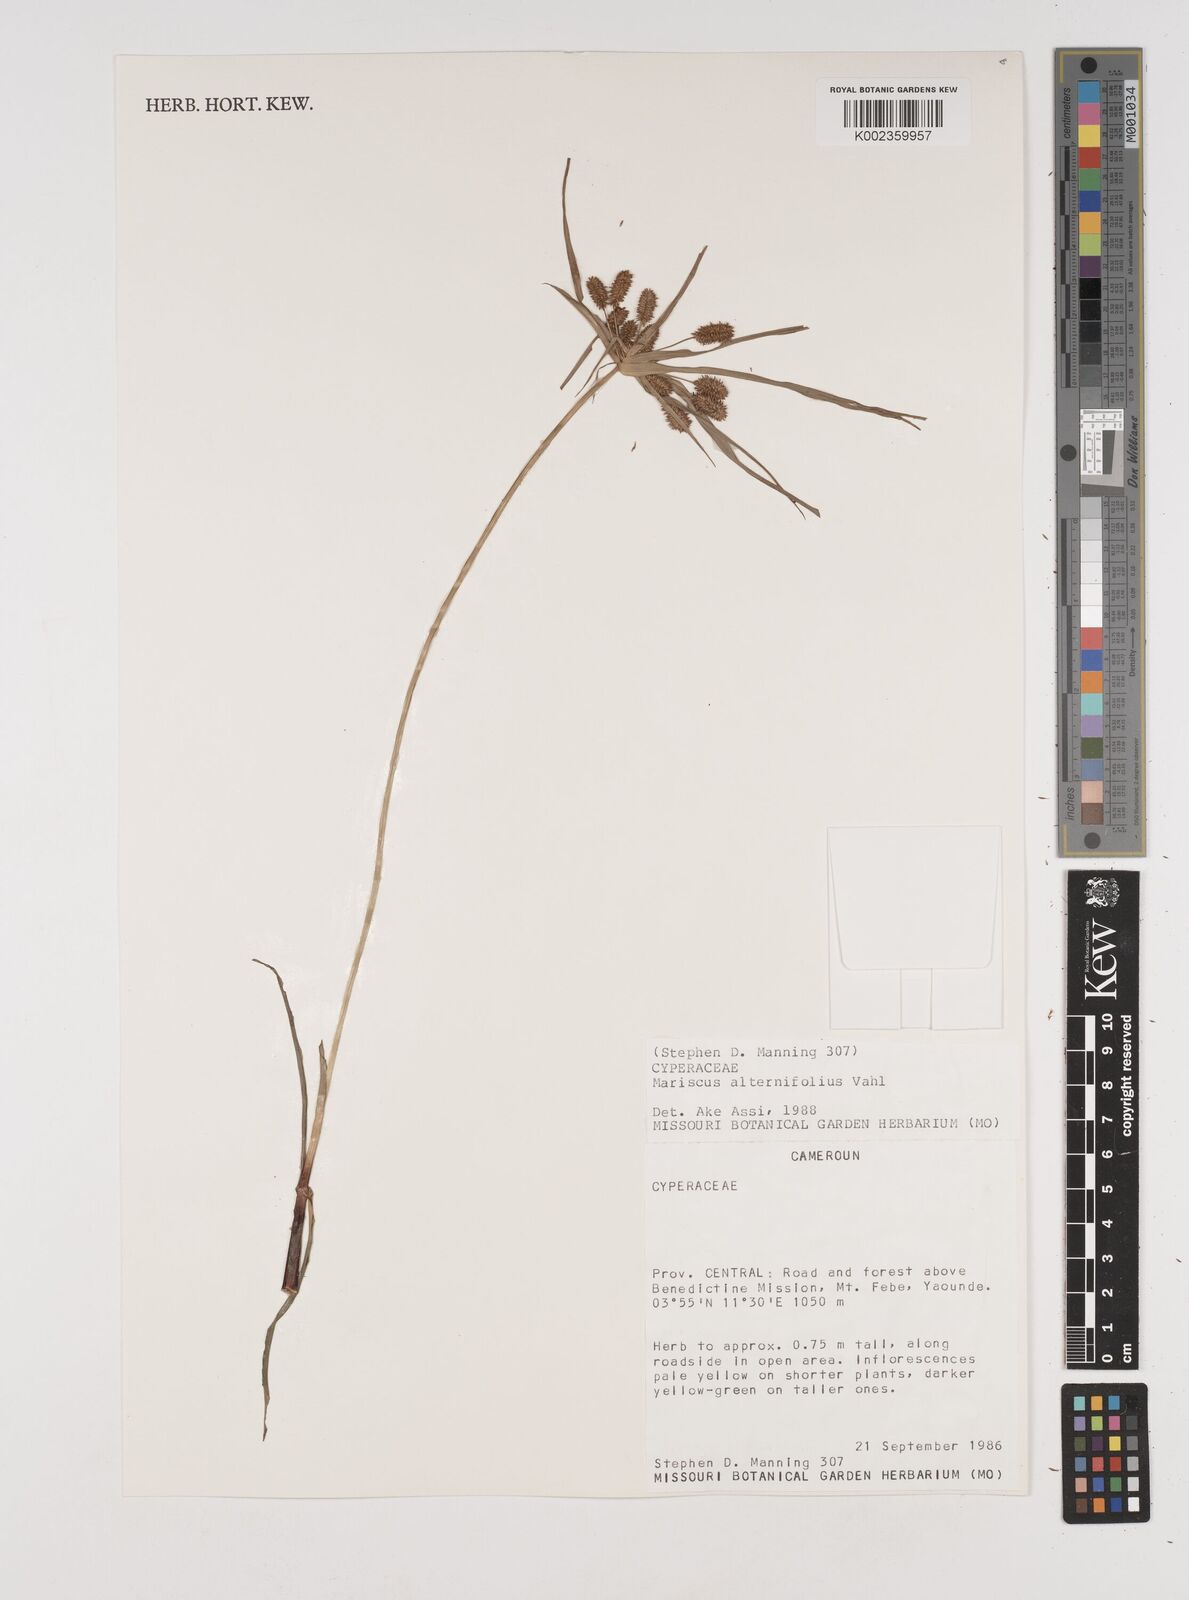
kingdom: Plantae
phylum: Tracheophyta
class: Liliopsida
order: Poales
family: Cyperaceae
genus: Cyperus
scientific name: Cyperus cyperoides
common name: Pacific island flat sedge
